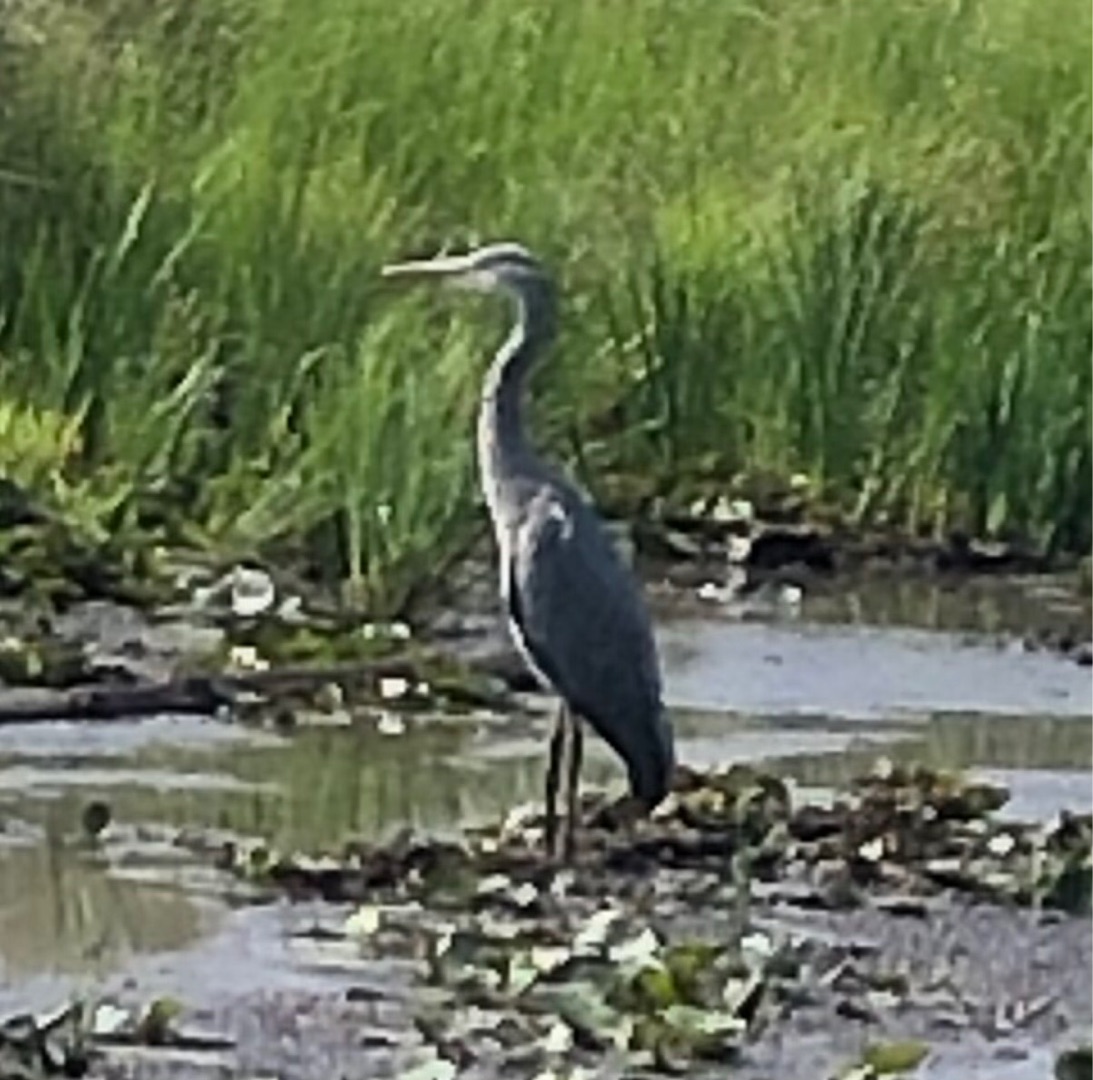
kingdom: Animalia
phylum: Chordata
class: Aves
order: Pelecaniformes
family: Ardeidae
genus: Ardea
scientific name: Ardea cinerea
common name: Fiskehejre
